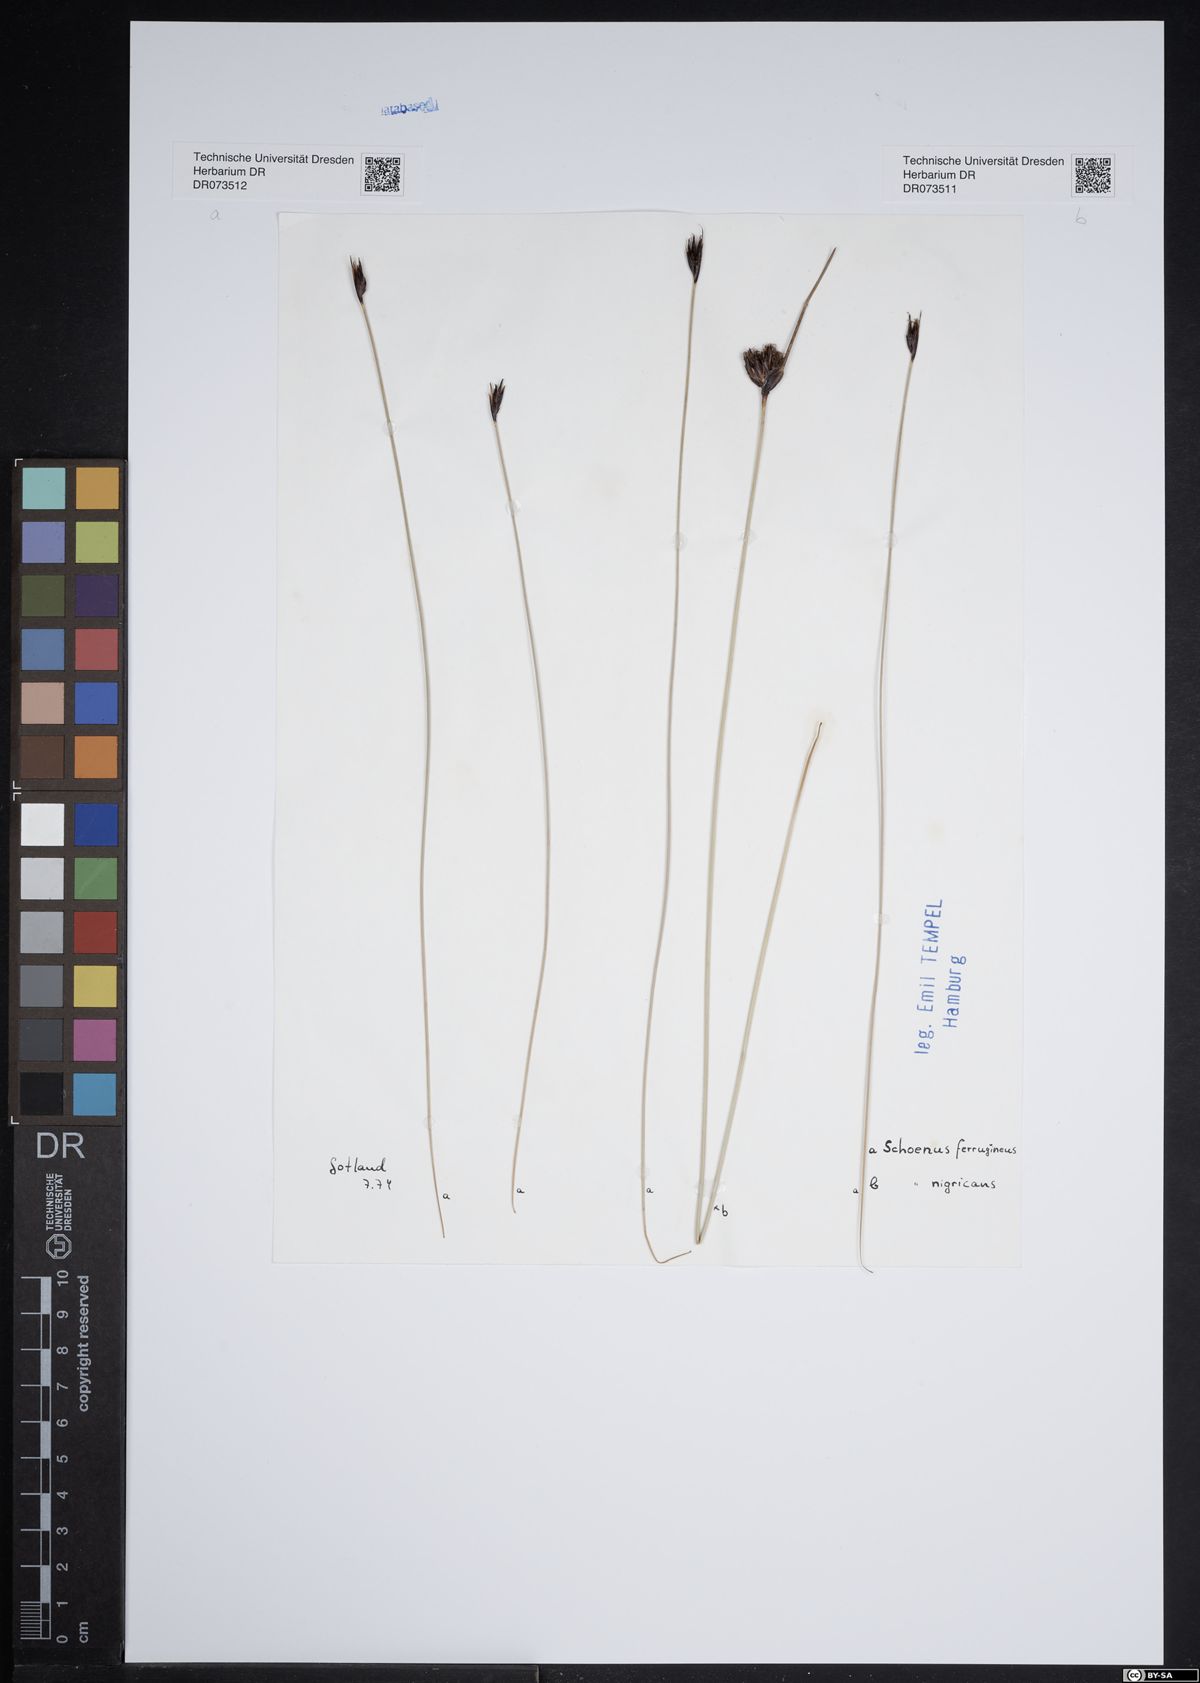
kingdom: Plantae
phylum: Tracheophyta
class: Liliopsida
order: Poales
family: Cyperaceae
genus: Schoenus
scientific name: Schoenus ferrugineus
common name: Brown bog-rush
